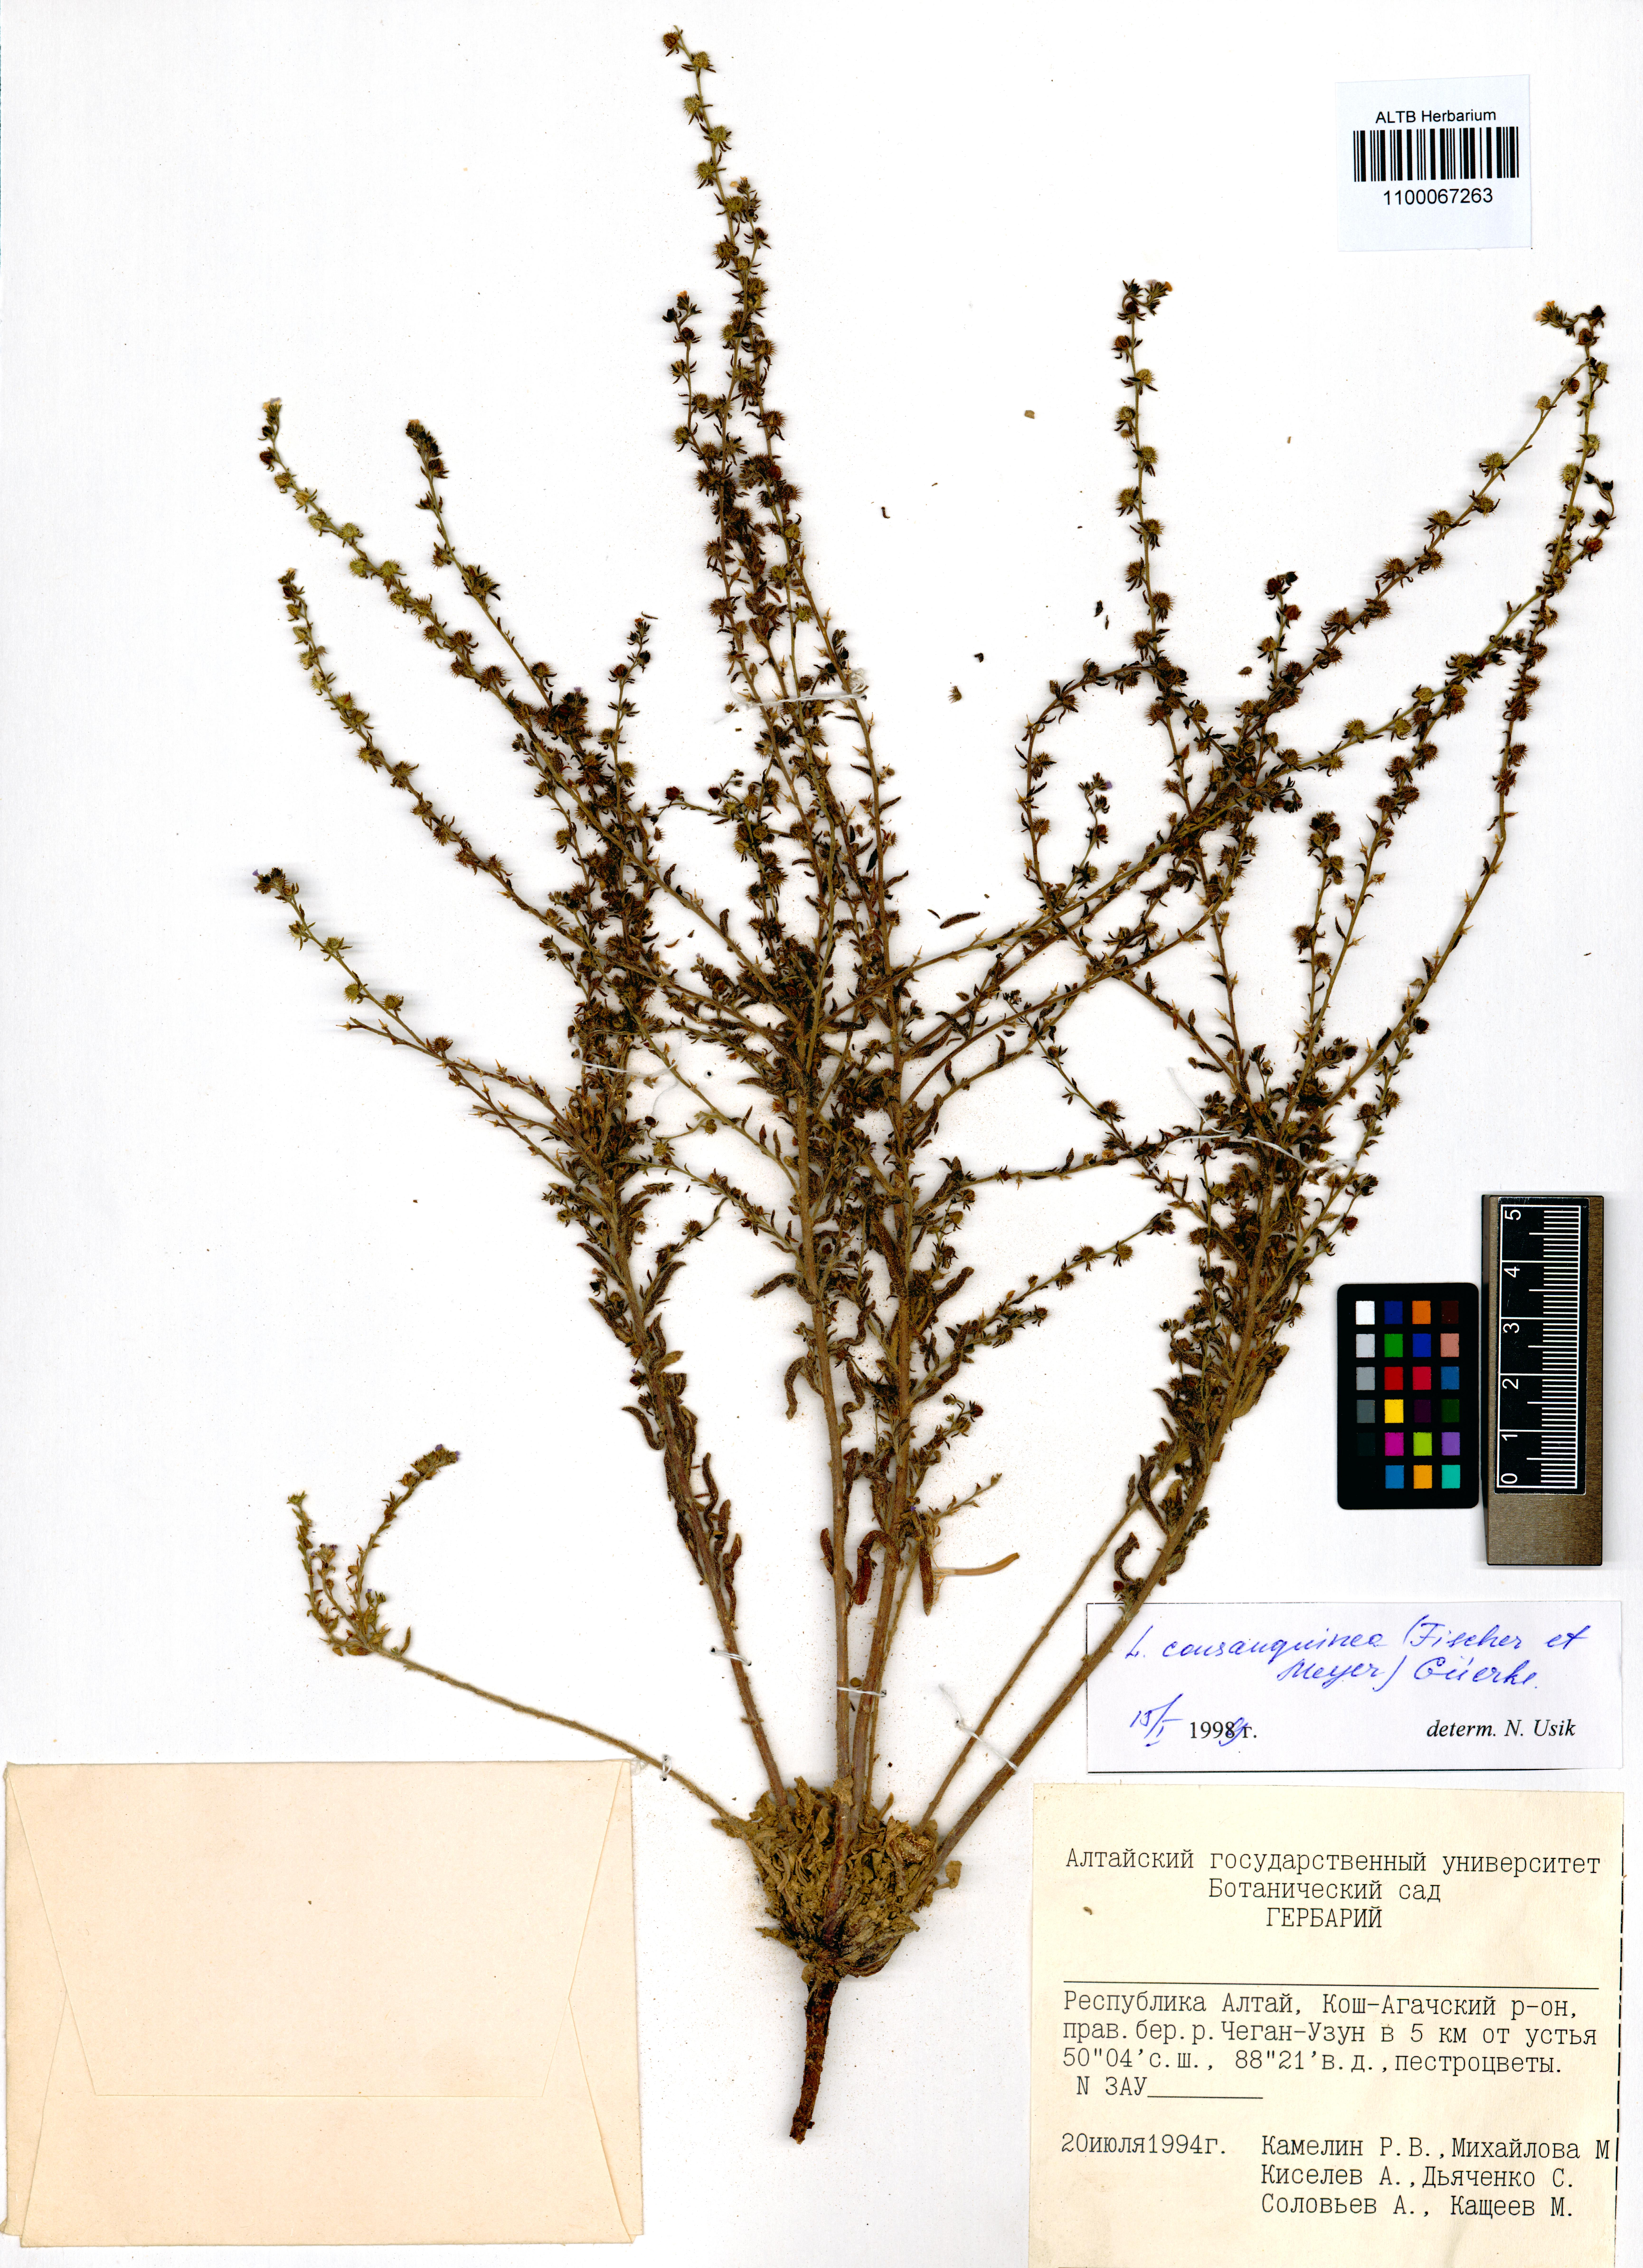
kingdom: Plantae
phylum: Tracheophyta
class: Magnoliopsida
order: Boraginales
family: Boraginaceae
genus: Lappula
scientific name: Lappula squarrosa
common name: European stickseed
